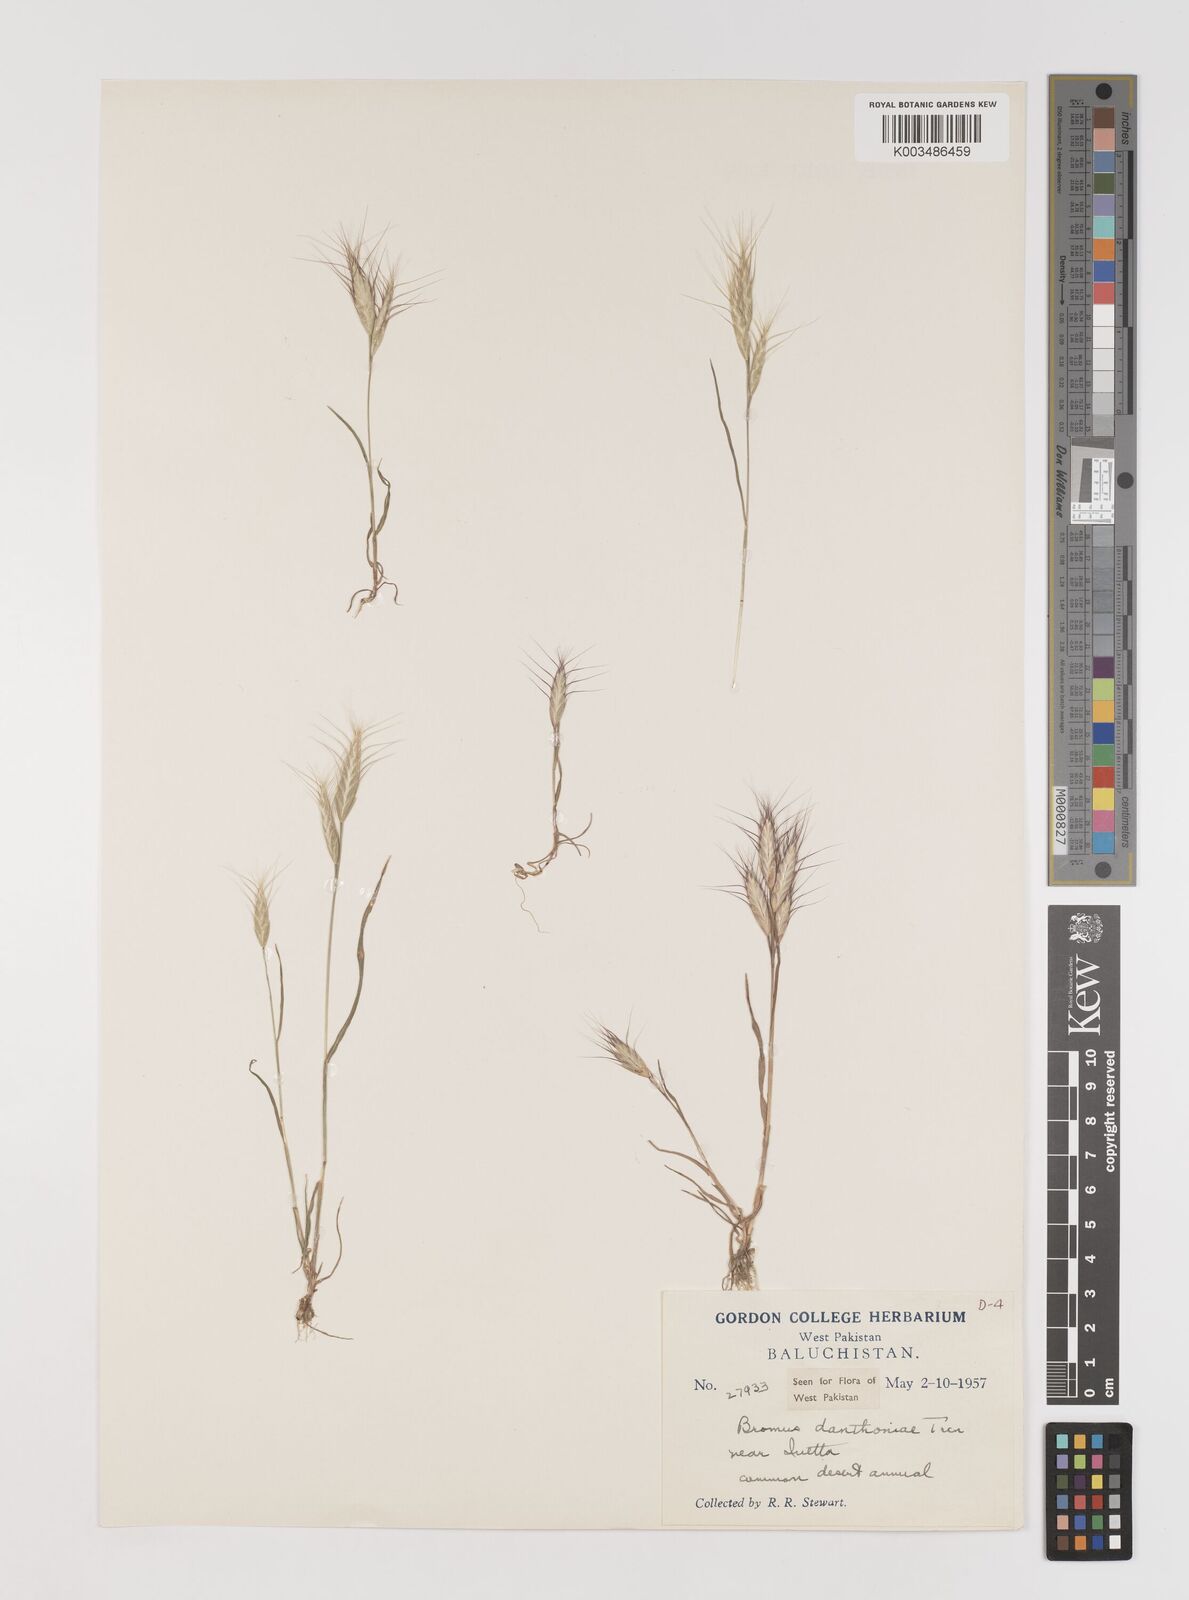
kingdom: Plantae
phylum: Tracheophyta
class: Liliopsida
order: Poales
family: Poaceae
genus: Bromus
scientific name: Bromus danthoniae
